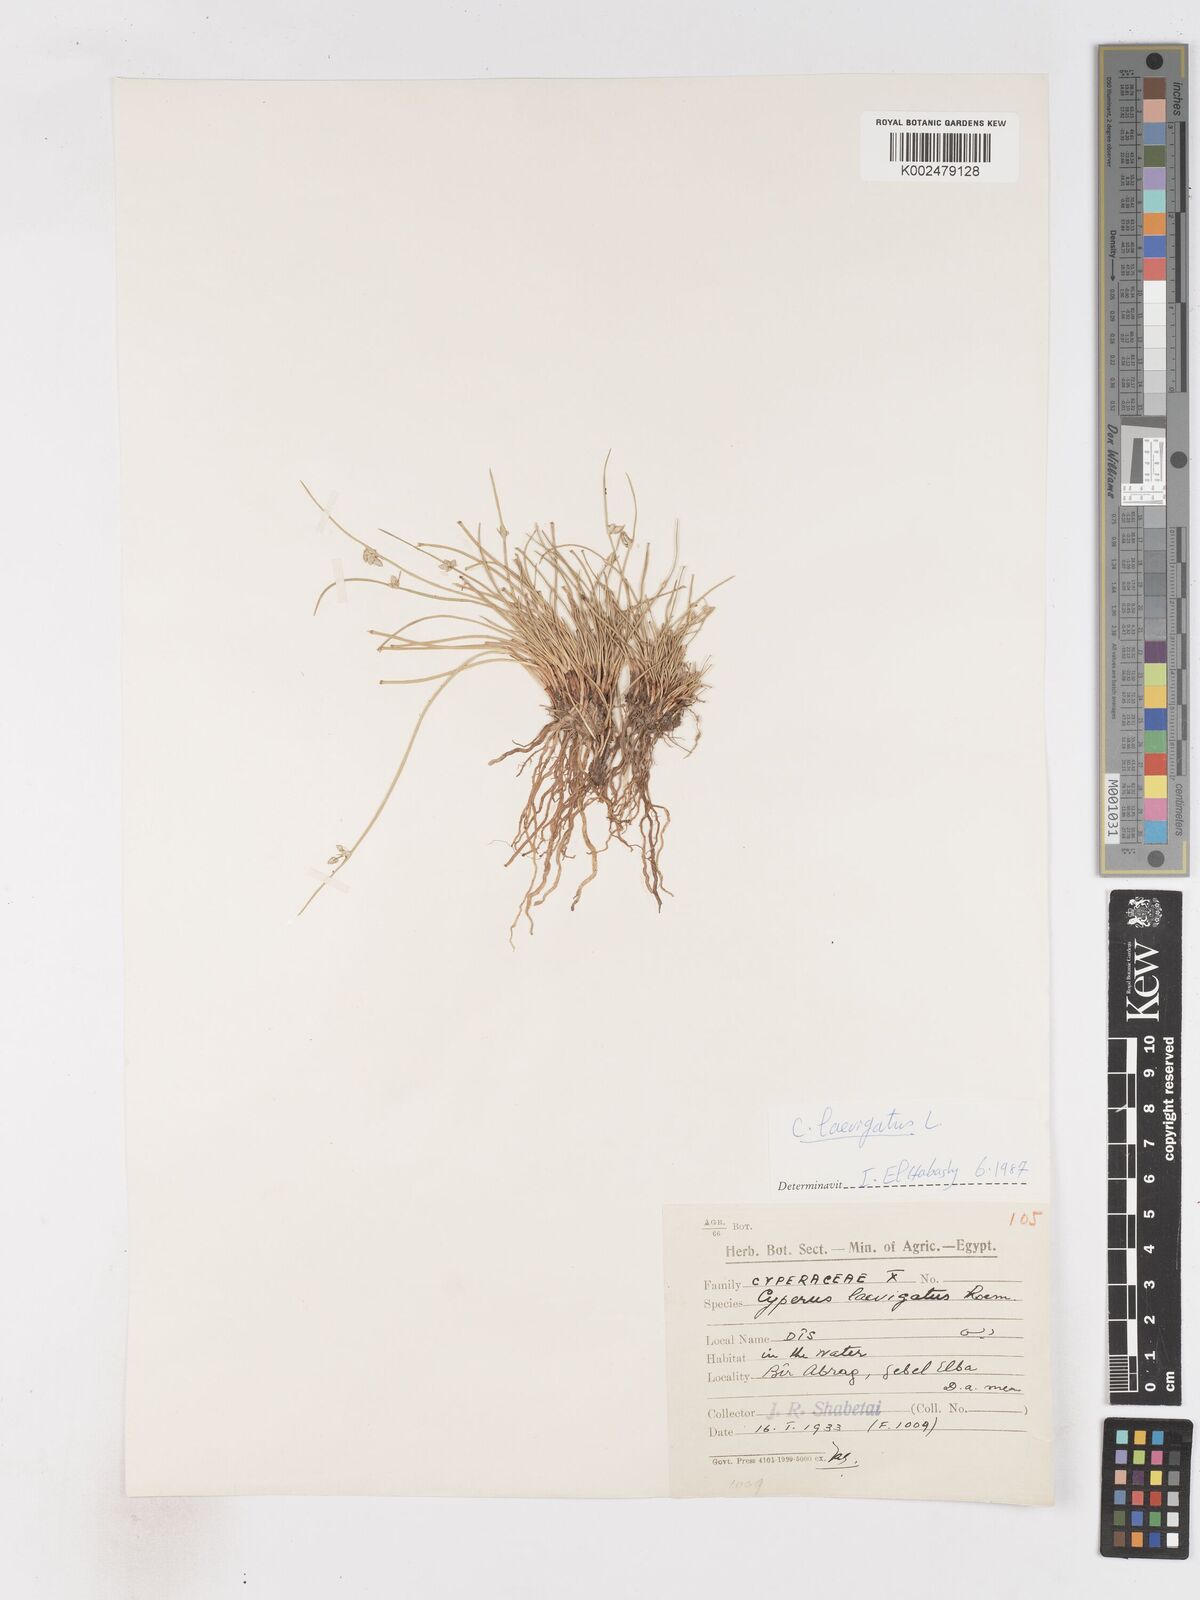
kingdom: Plantae
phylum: Tracheophyta
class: Liliopsida
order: Poales
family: Cyperaceae
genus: Cyperus
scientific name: Cyperus laevigatus
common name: Smooth flat sedge
